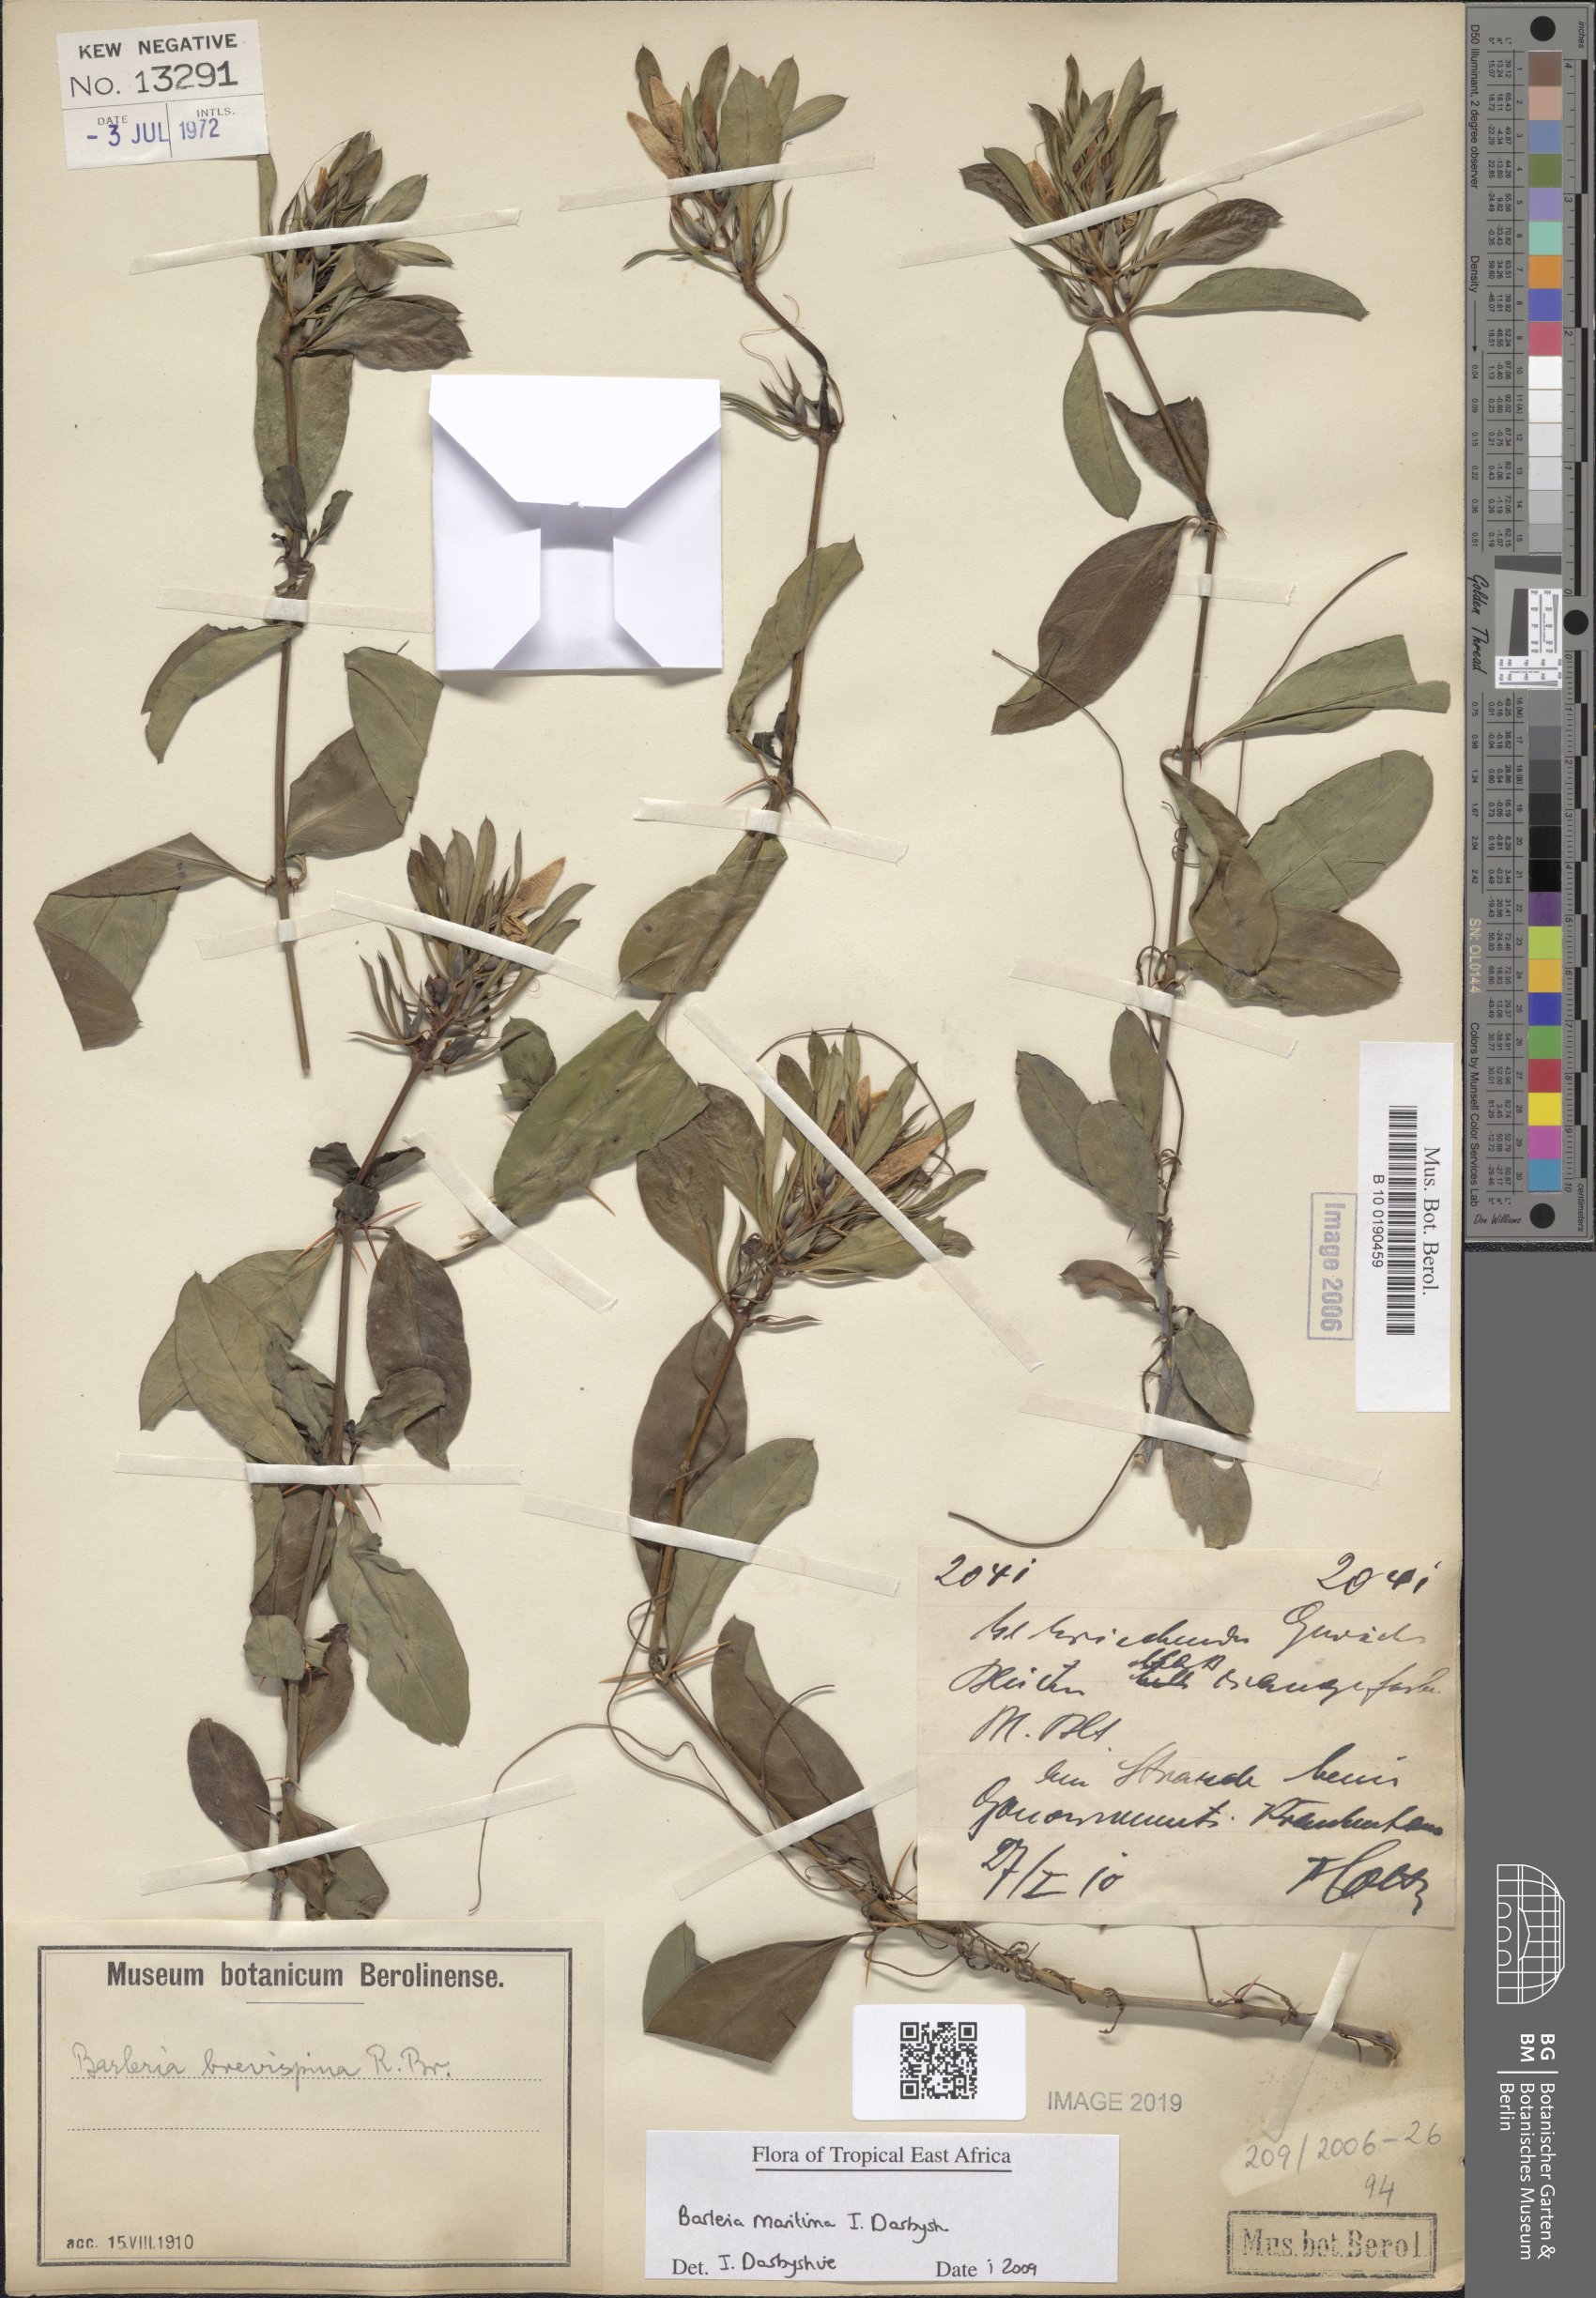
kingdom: Plantae
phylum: Tracheophyta
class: Magnoliopsida
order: Lamiales
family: Acanthaceae
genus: Barleria
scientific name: Barleria quadrispina
